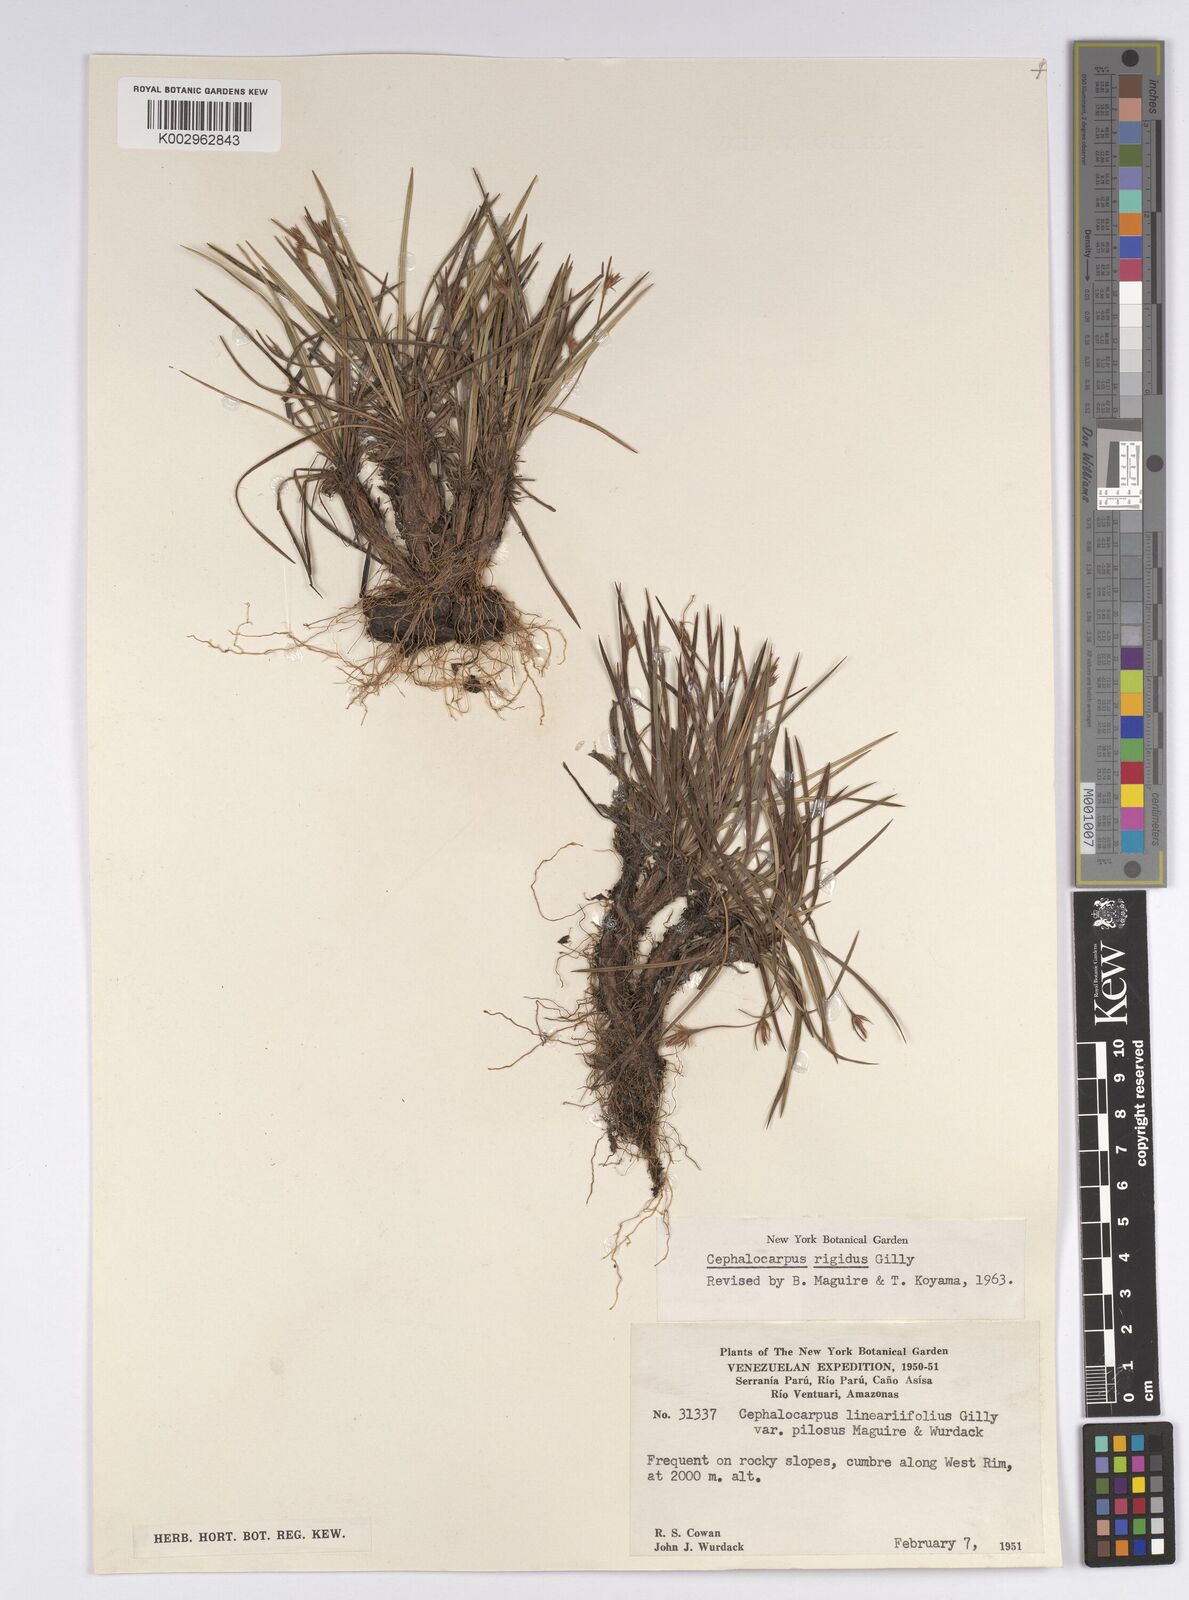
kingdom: Plantae
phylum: Tracheophyta
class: Liliopsida
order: Poales
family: Cyperaceae
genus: Cephalocarpus
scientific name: Cephalocarpus rigidus
